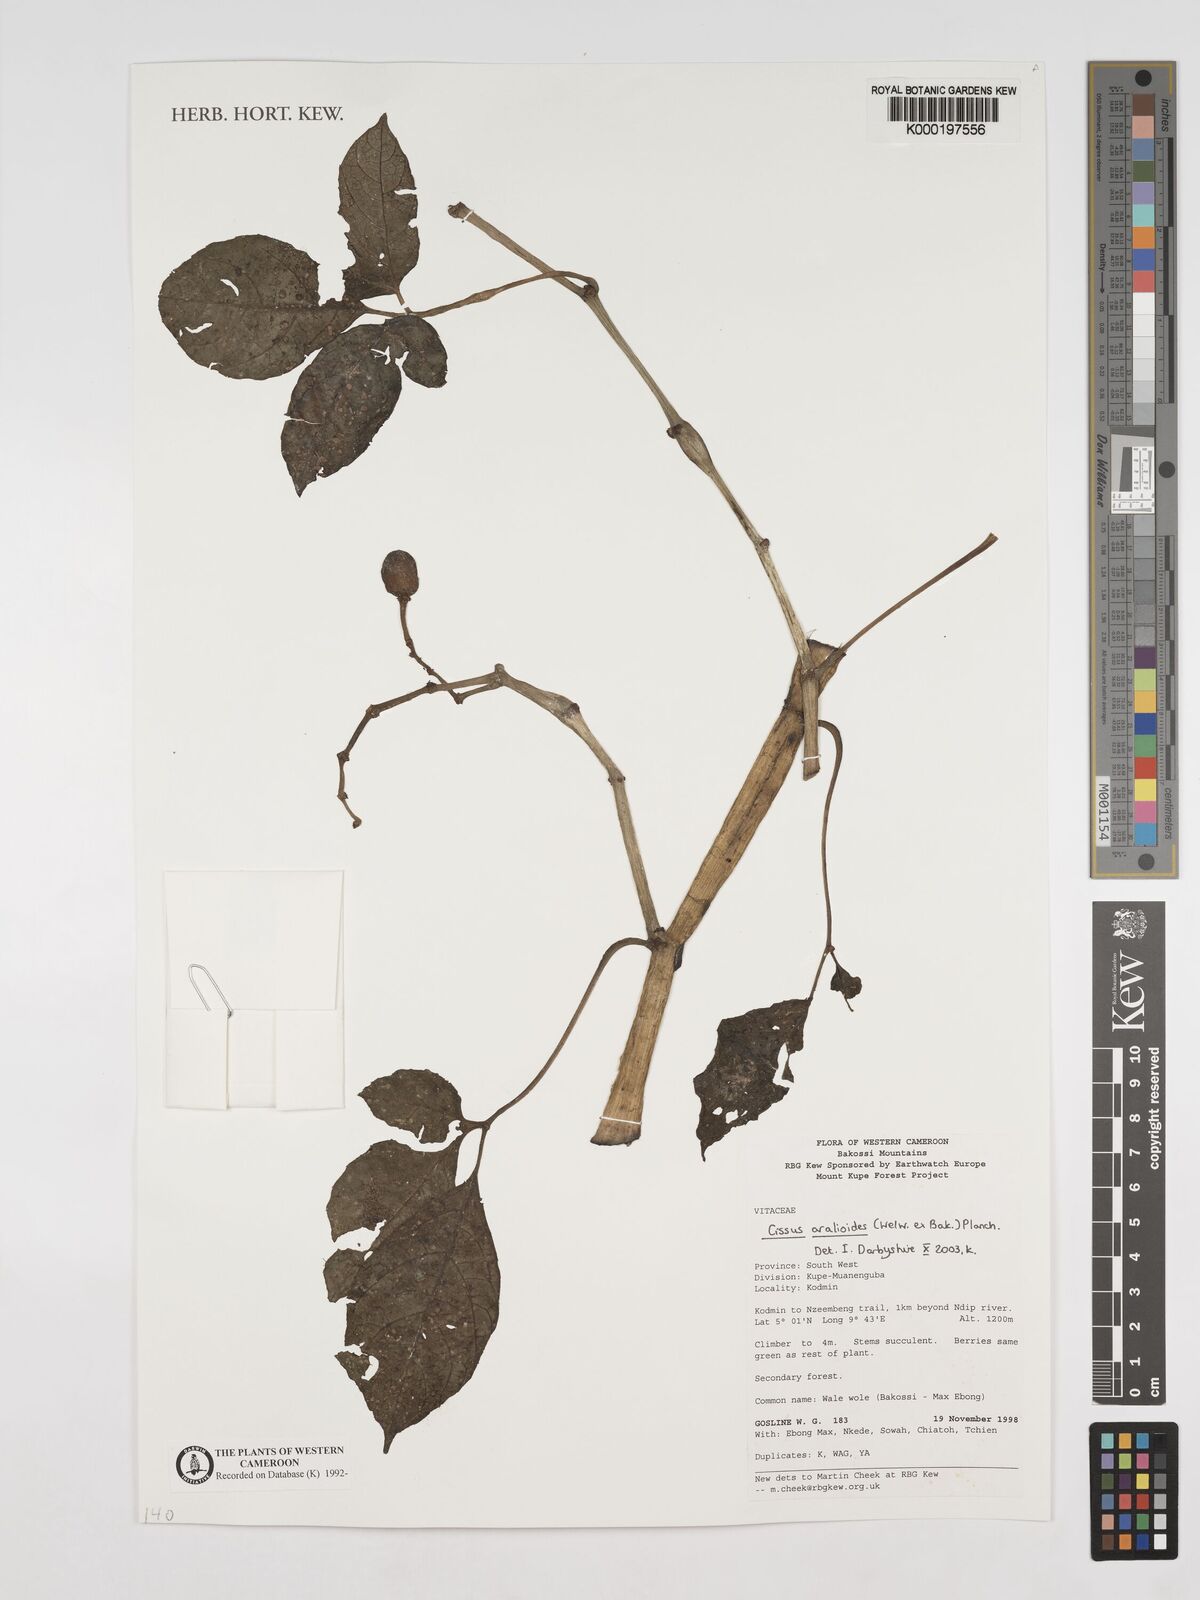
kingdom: Plantae
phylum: Tracheophyta
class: Magnoliopsida
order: Vitales
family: Vitaceae
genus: Cissus
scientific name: Cissus aralioides
